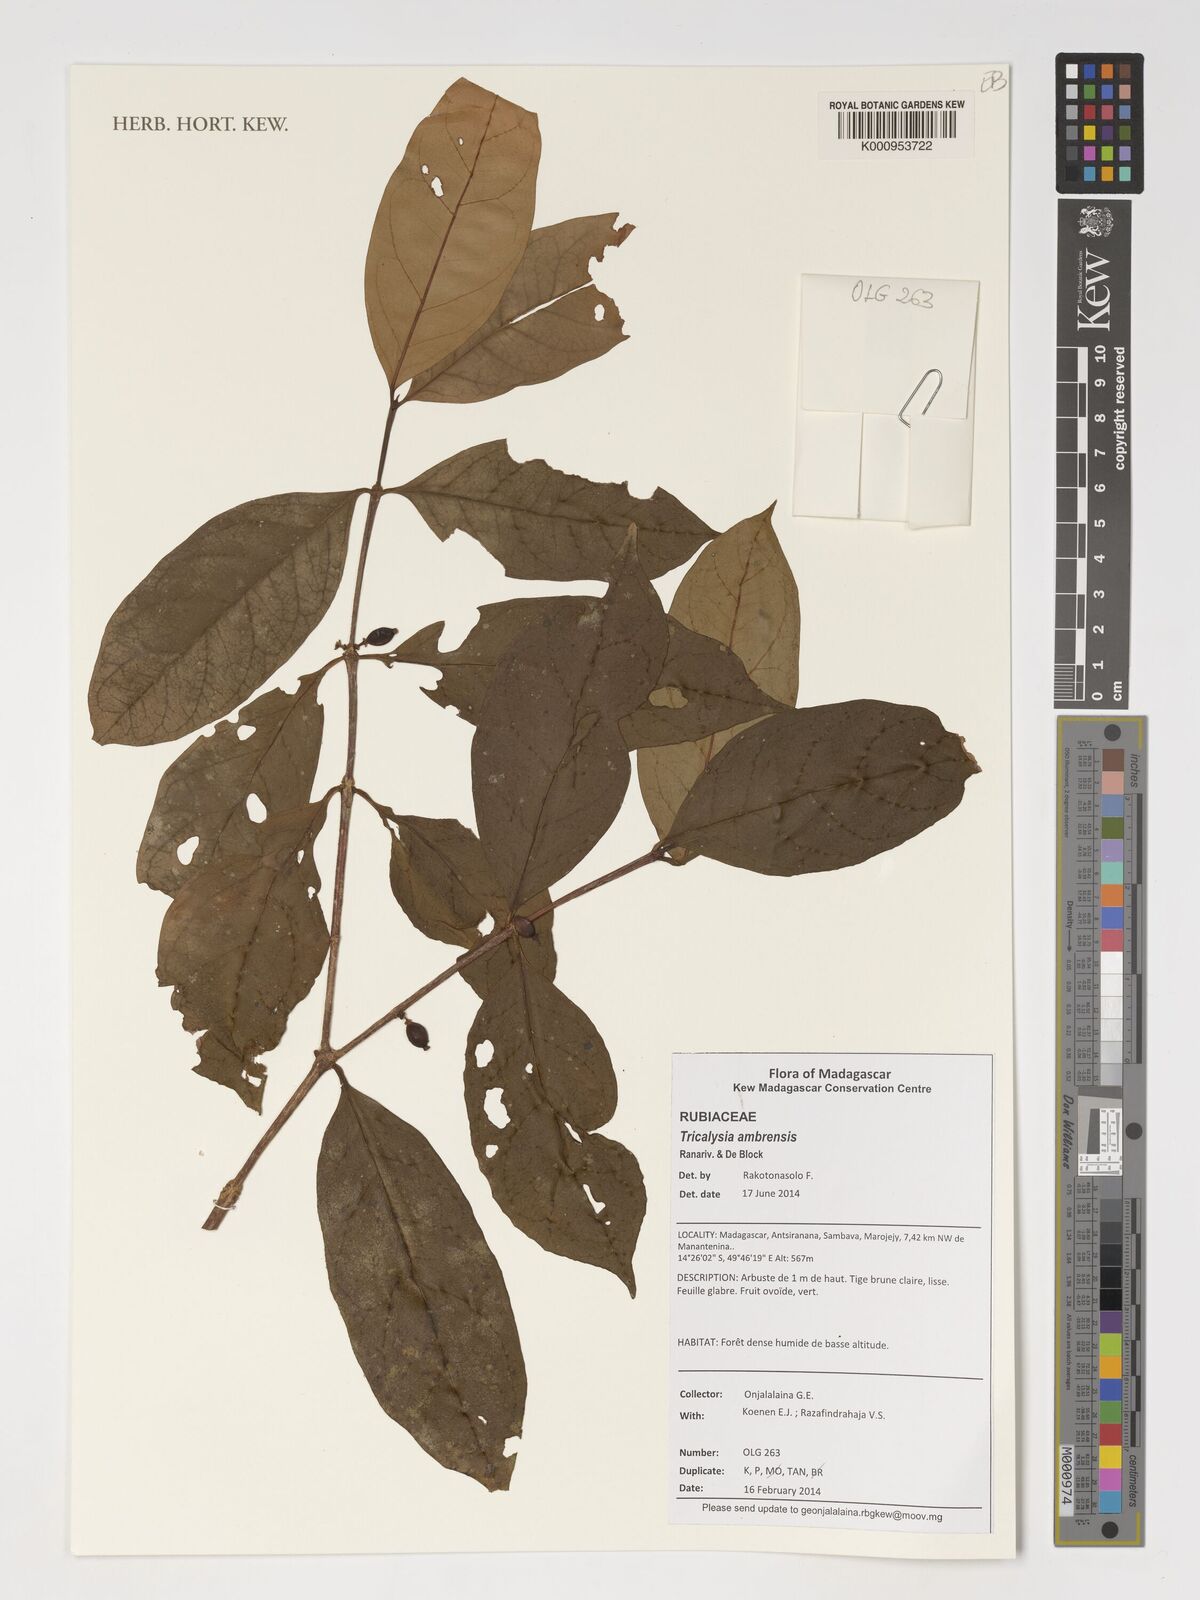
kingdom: Plantae
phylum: Tracheophyta
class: Magnoliopsida
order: Gentianales
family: Rubiaceae
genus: Tricalysia
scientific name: Tricalysia ambrensis
